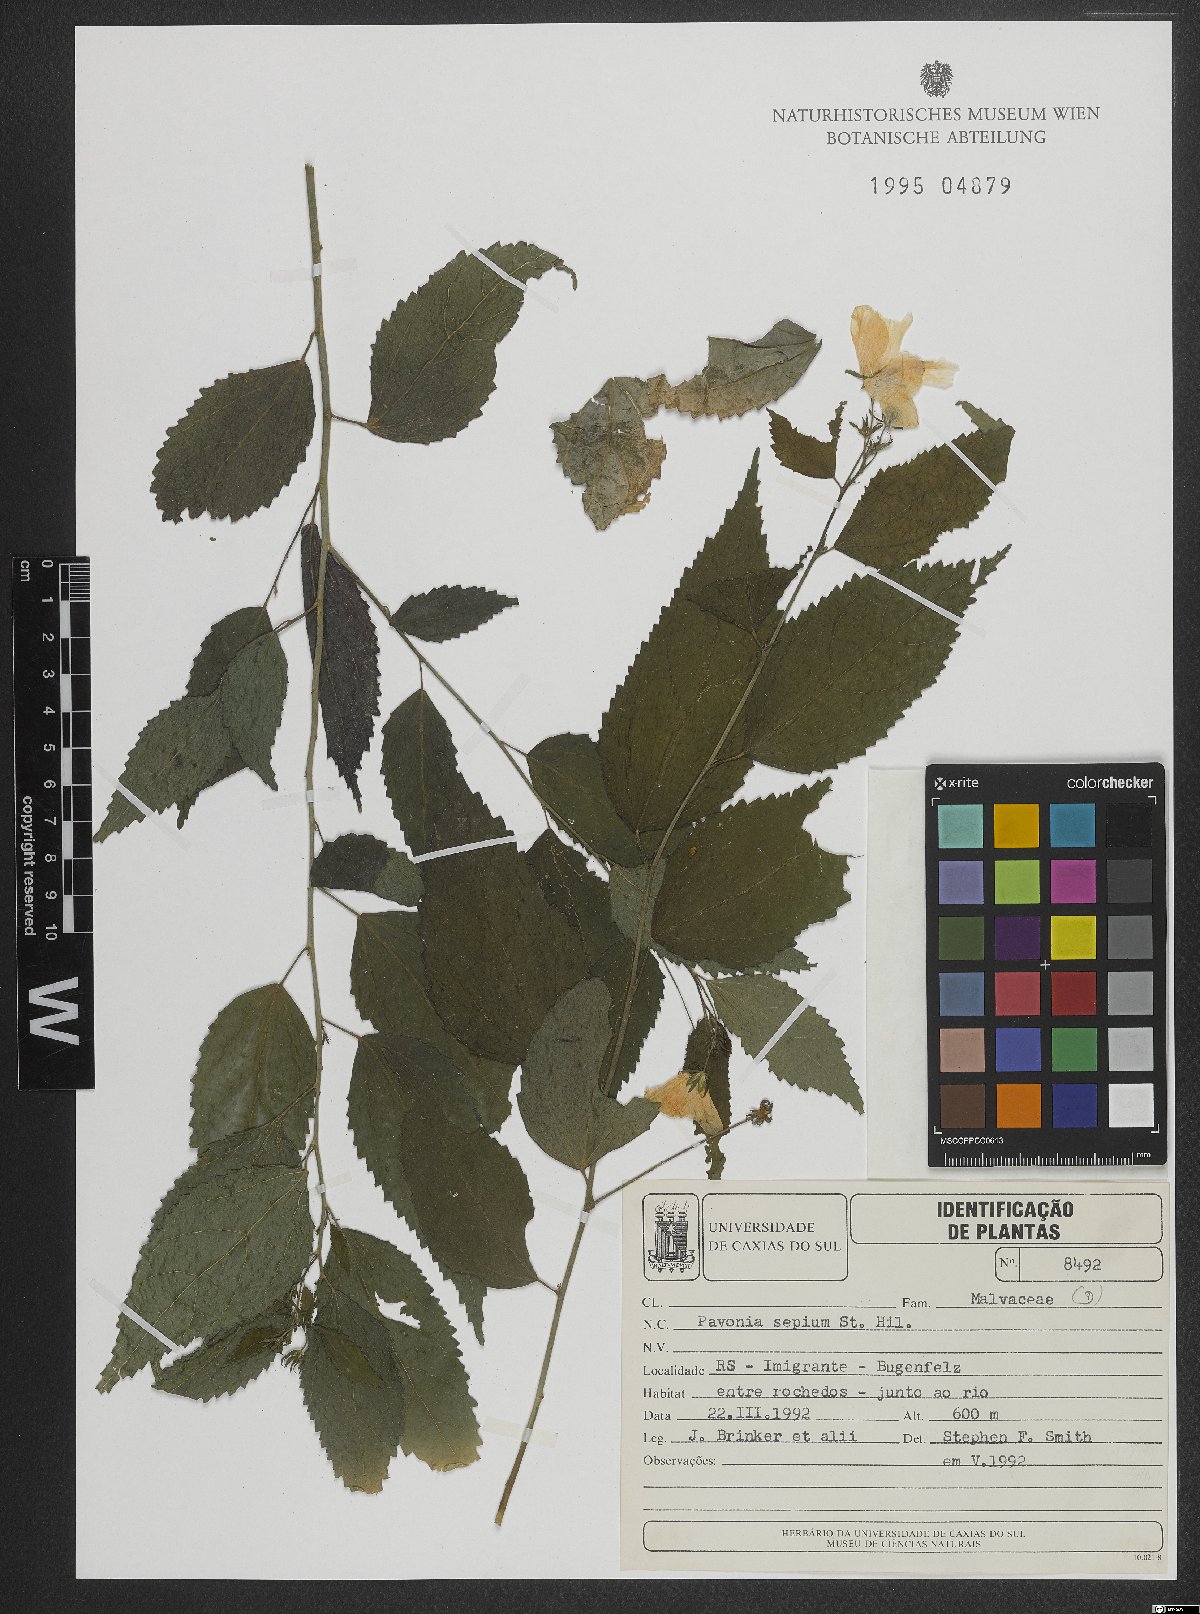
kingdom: Plantae
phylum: Tracheophyta
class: Magnoliopsida
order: Malvales
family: Malvaceae
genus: Pavonia
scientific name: Pavonia sepium
